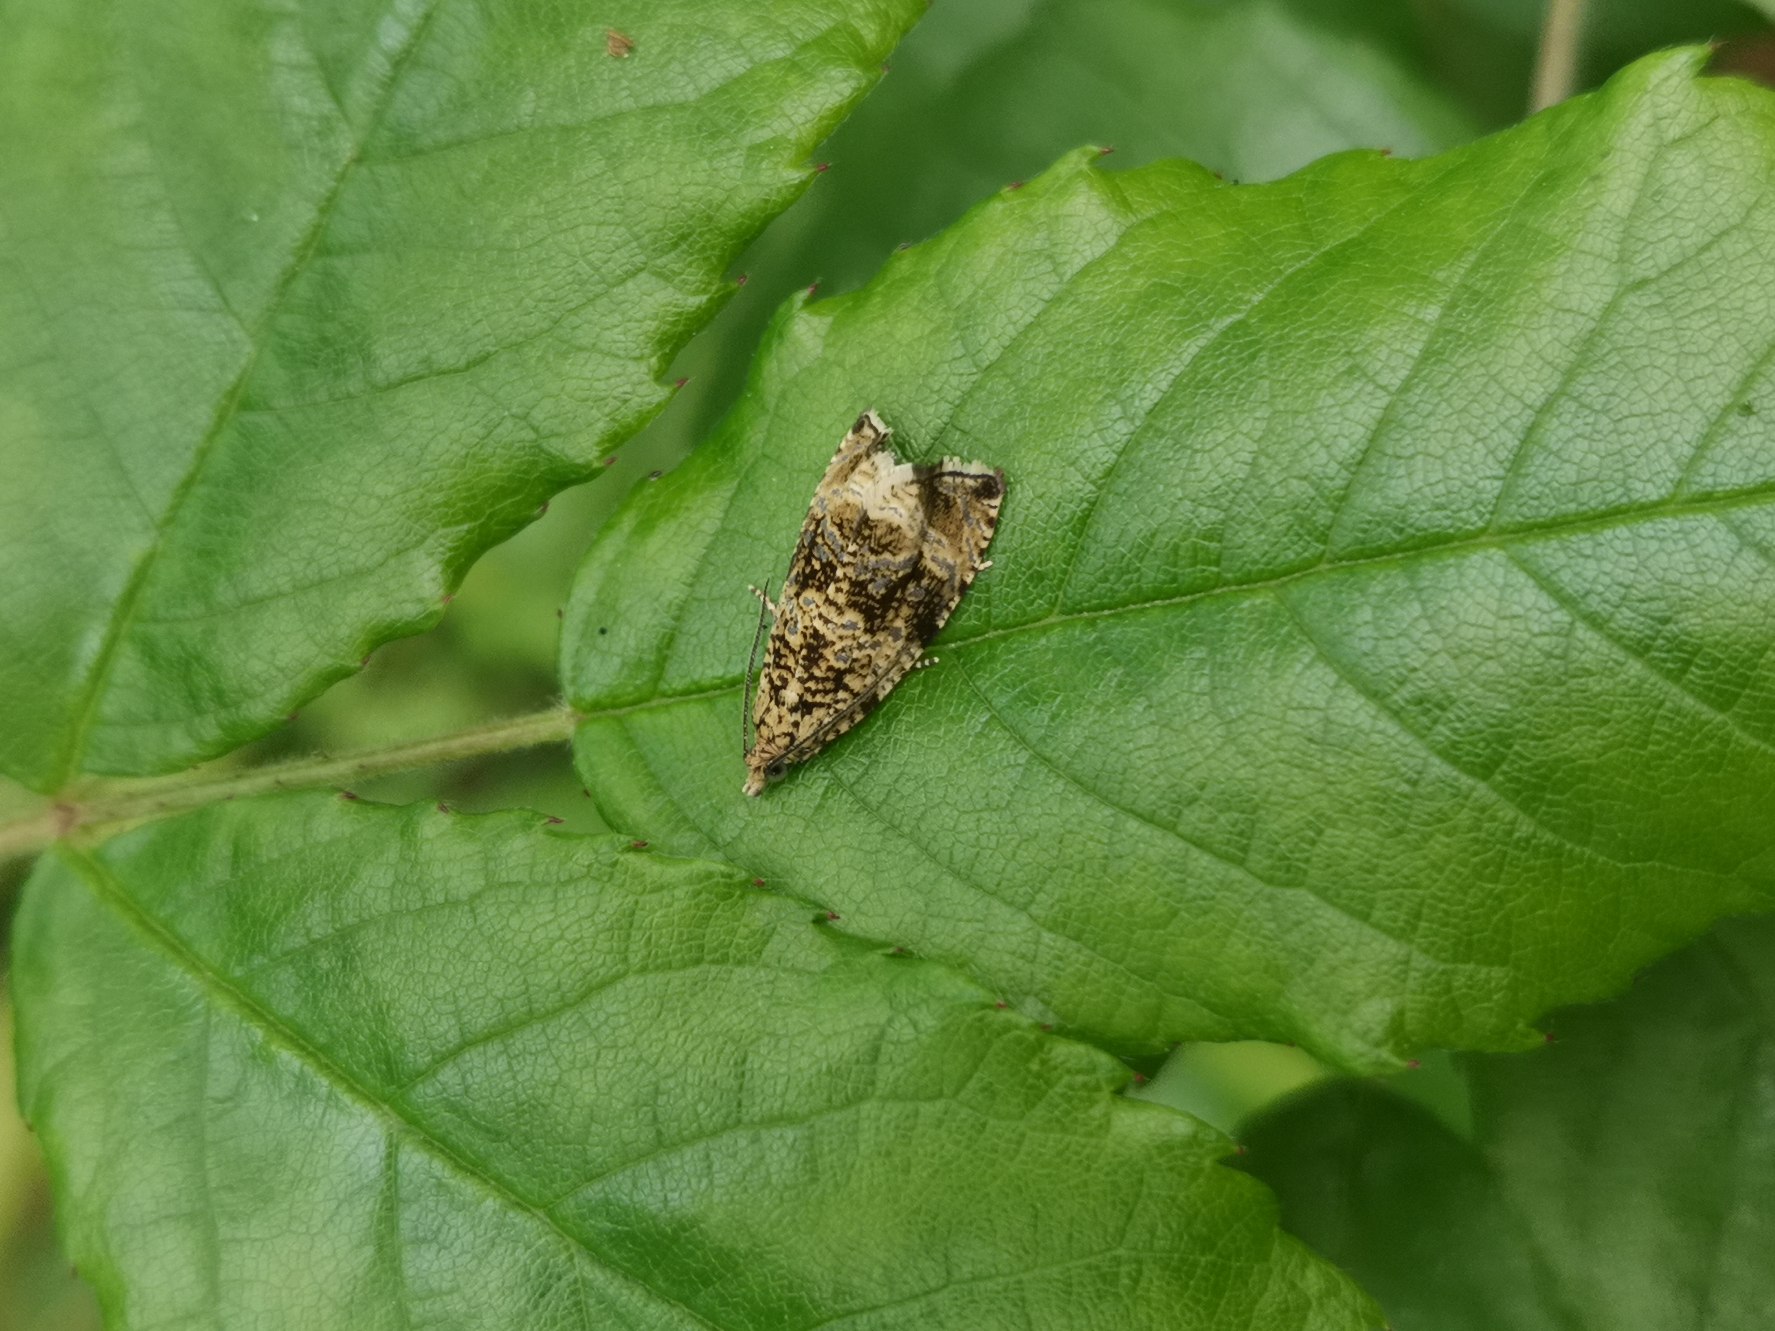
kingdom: Animalia
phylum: Arthropoda
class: Insecta
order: Lepidoptera
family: Tortricidae
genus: Syricoris
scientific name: Syricoris lacunana
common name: Rød jordbærvikler
